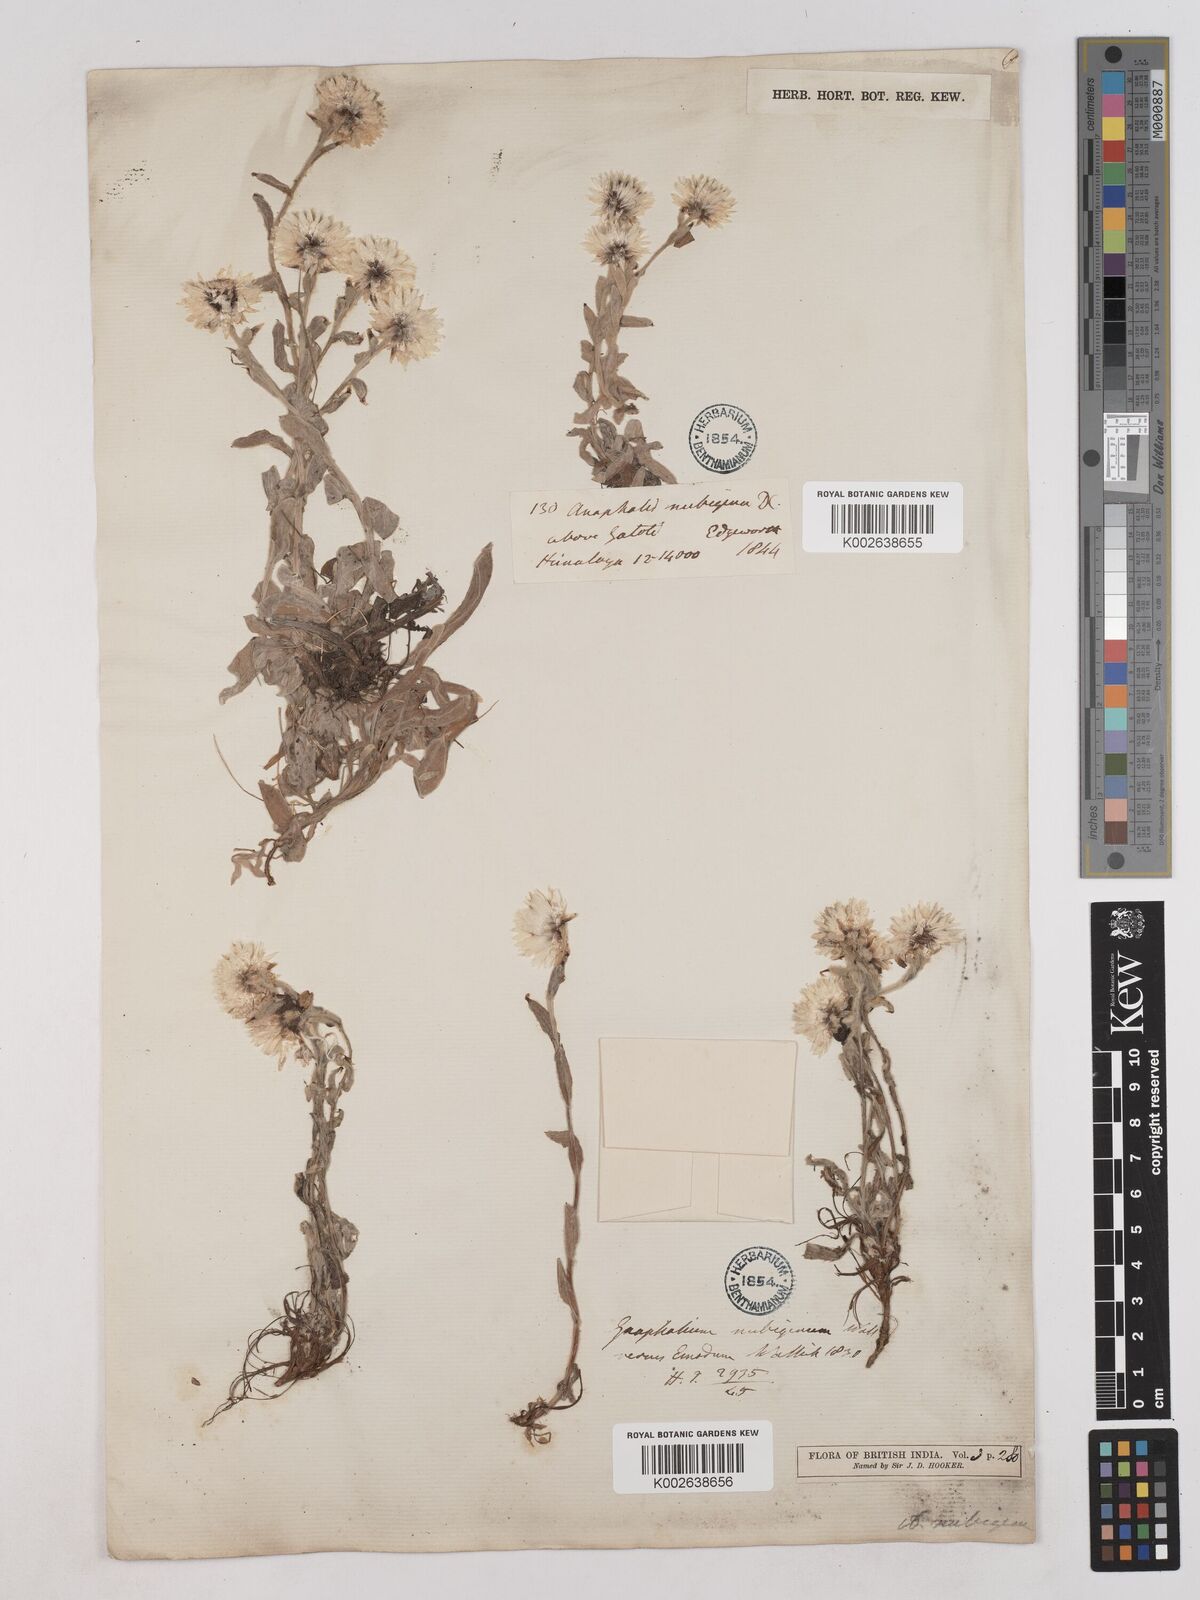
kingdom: Plantae
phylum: Tracheophyta
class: Magnoliopsida
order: Asterales
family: Asteraceae
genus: Anaphalioides
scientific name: Anaphalioides trinervis
